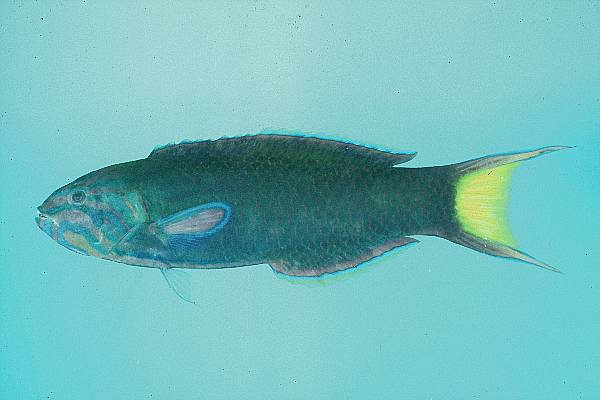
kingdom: Animalia
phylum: Chordata
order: Perciformes
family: Labridae
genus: Thalassoma
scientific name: Thalassoma lunare
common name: Blue wrasse
